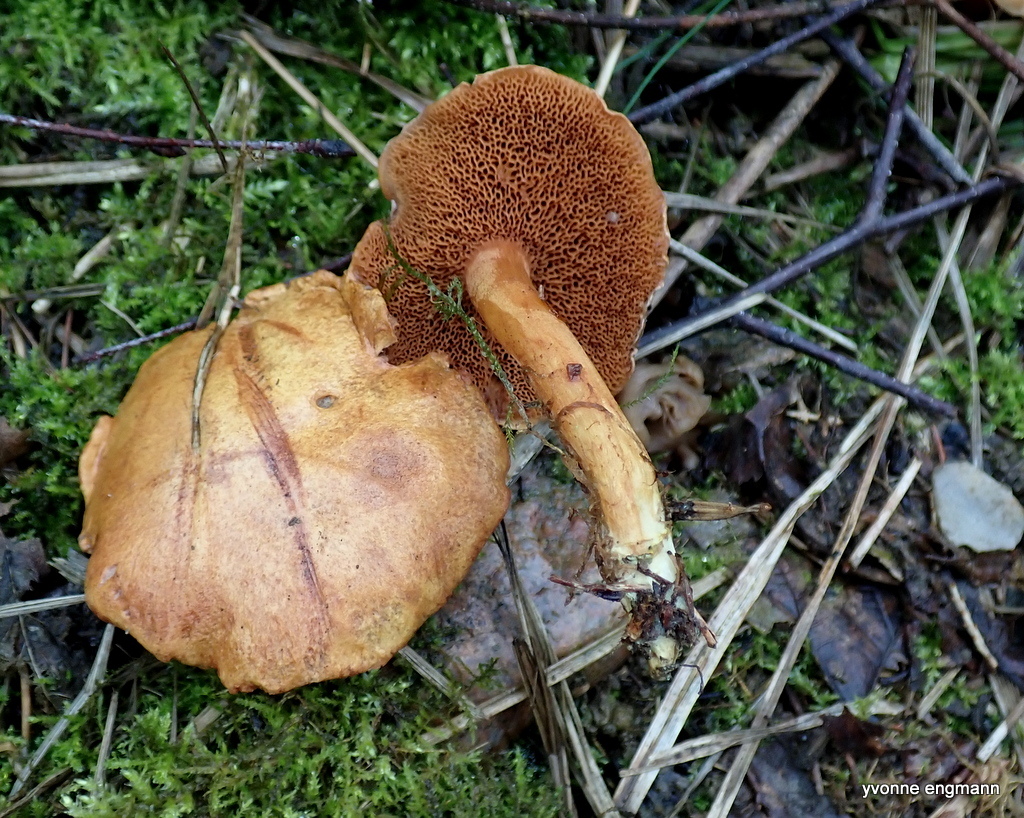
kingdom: Fungi
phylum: Basidiomycota
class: Agaricomycetes
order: Boletales
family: Boletaceae
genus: Chalciporus
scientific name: Chalciporus piperatus
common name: peberrørhat
